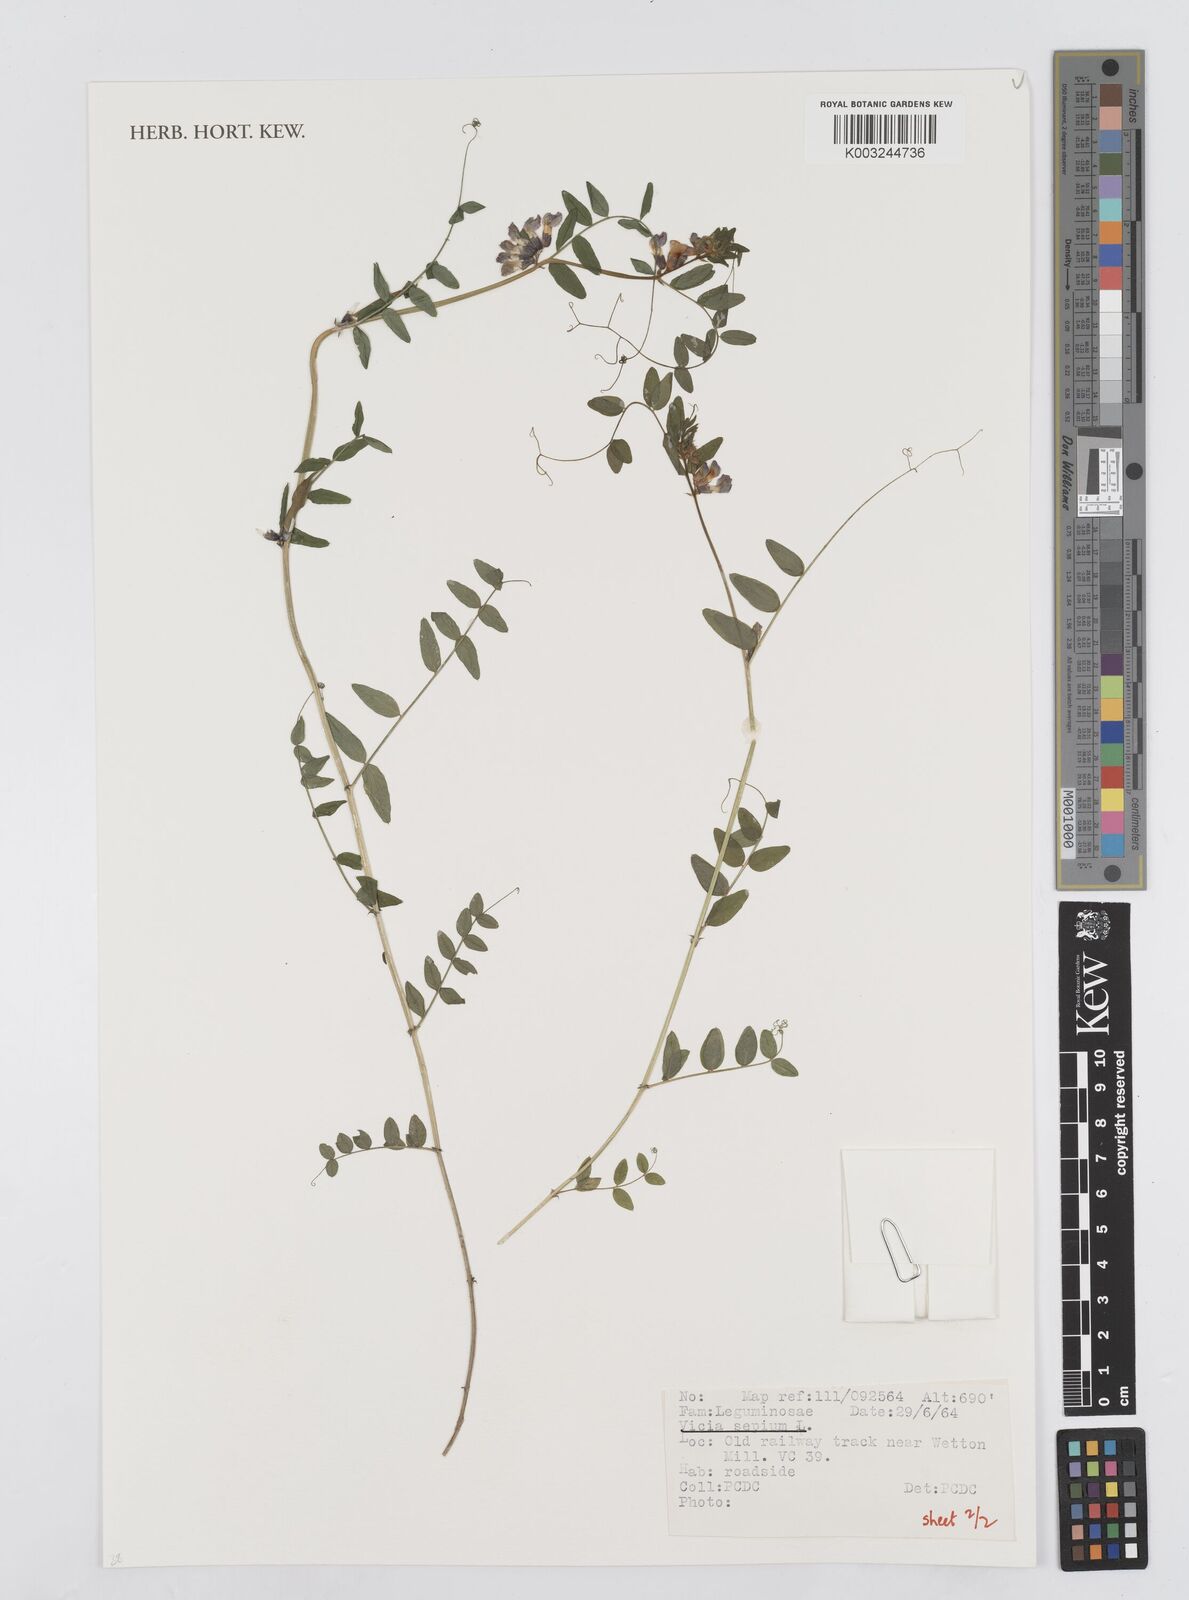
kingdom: Plantae
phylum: Tracheophyta
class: Magnoliopsida
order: Fabales
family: Fabaceae
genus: Vicia
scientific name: Vicia sepium
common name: Bush vetch
